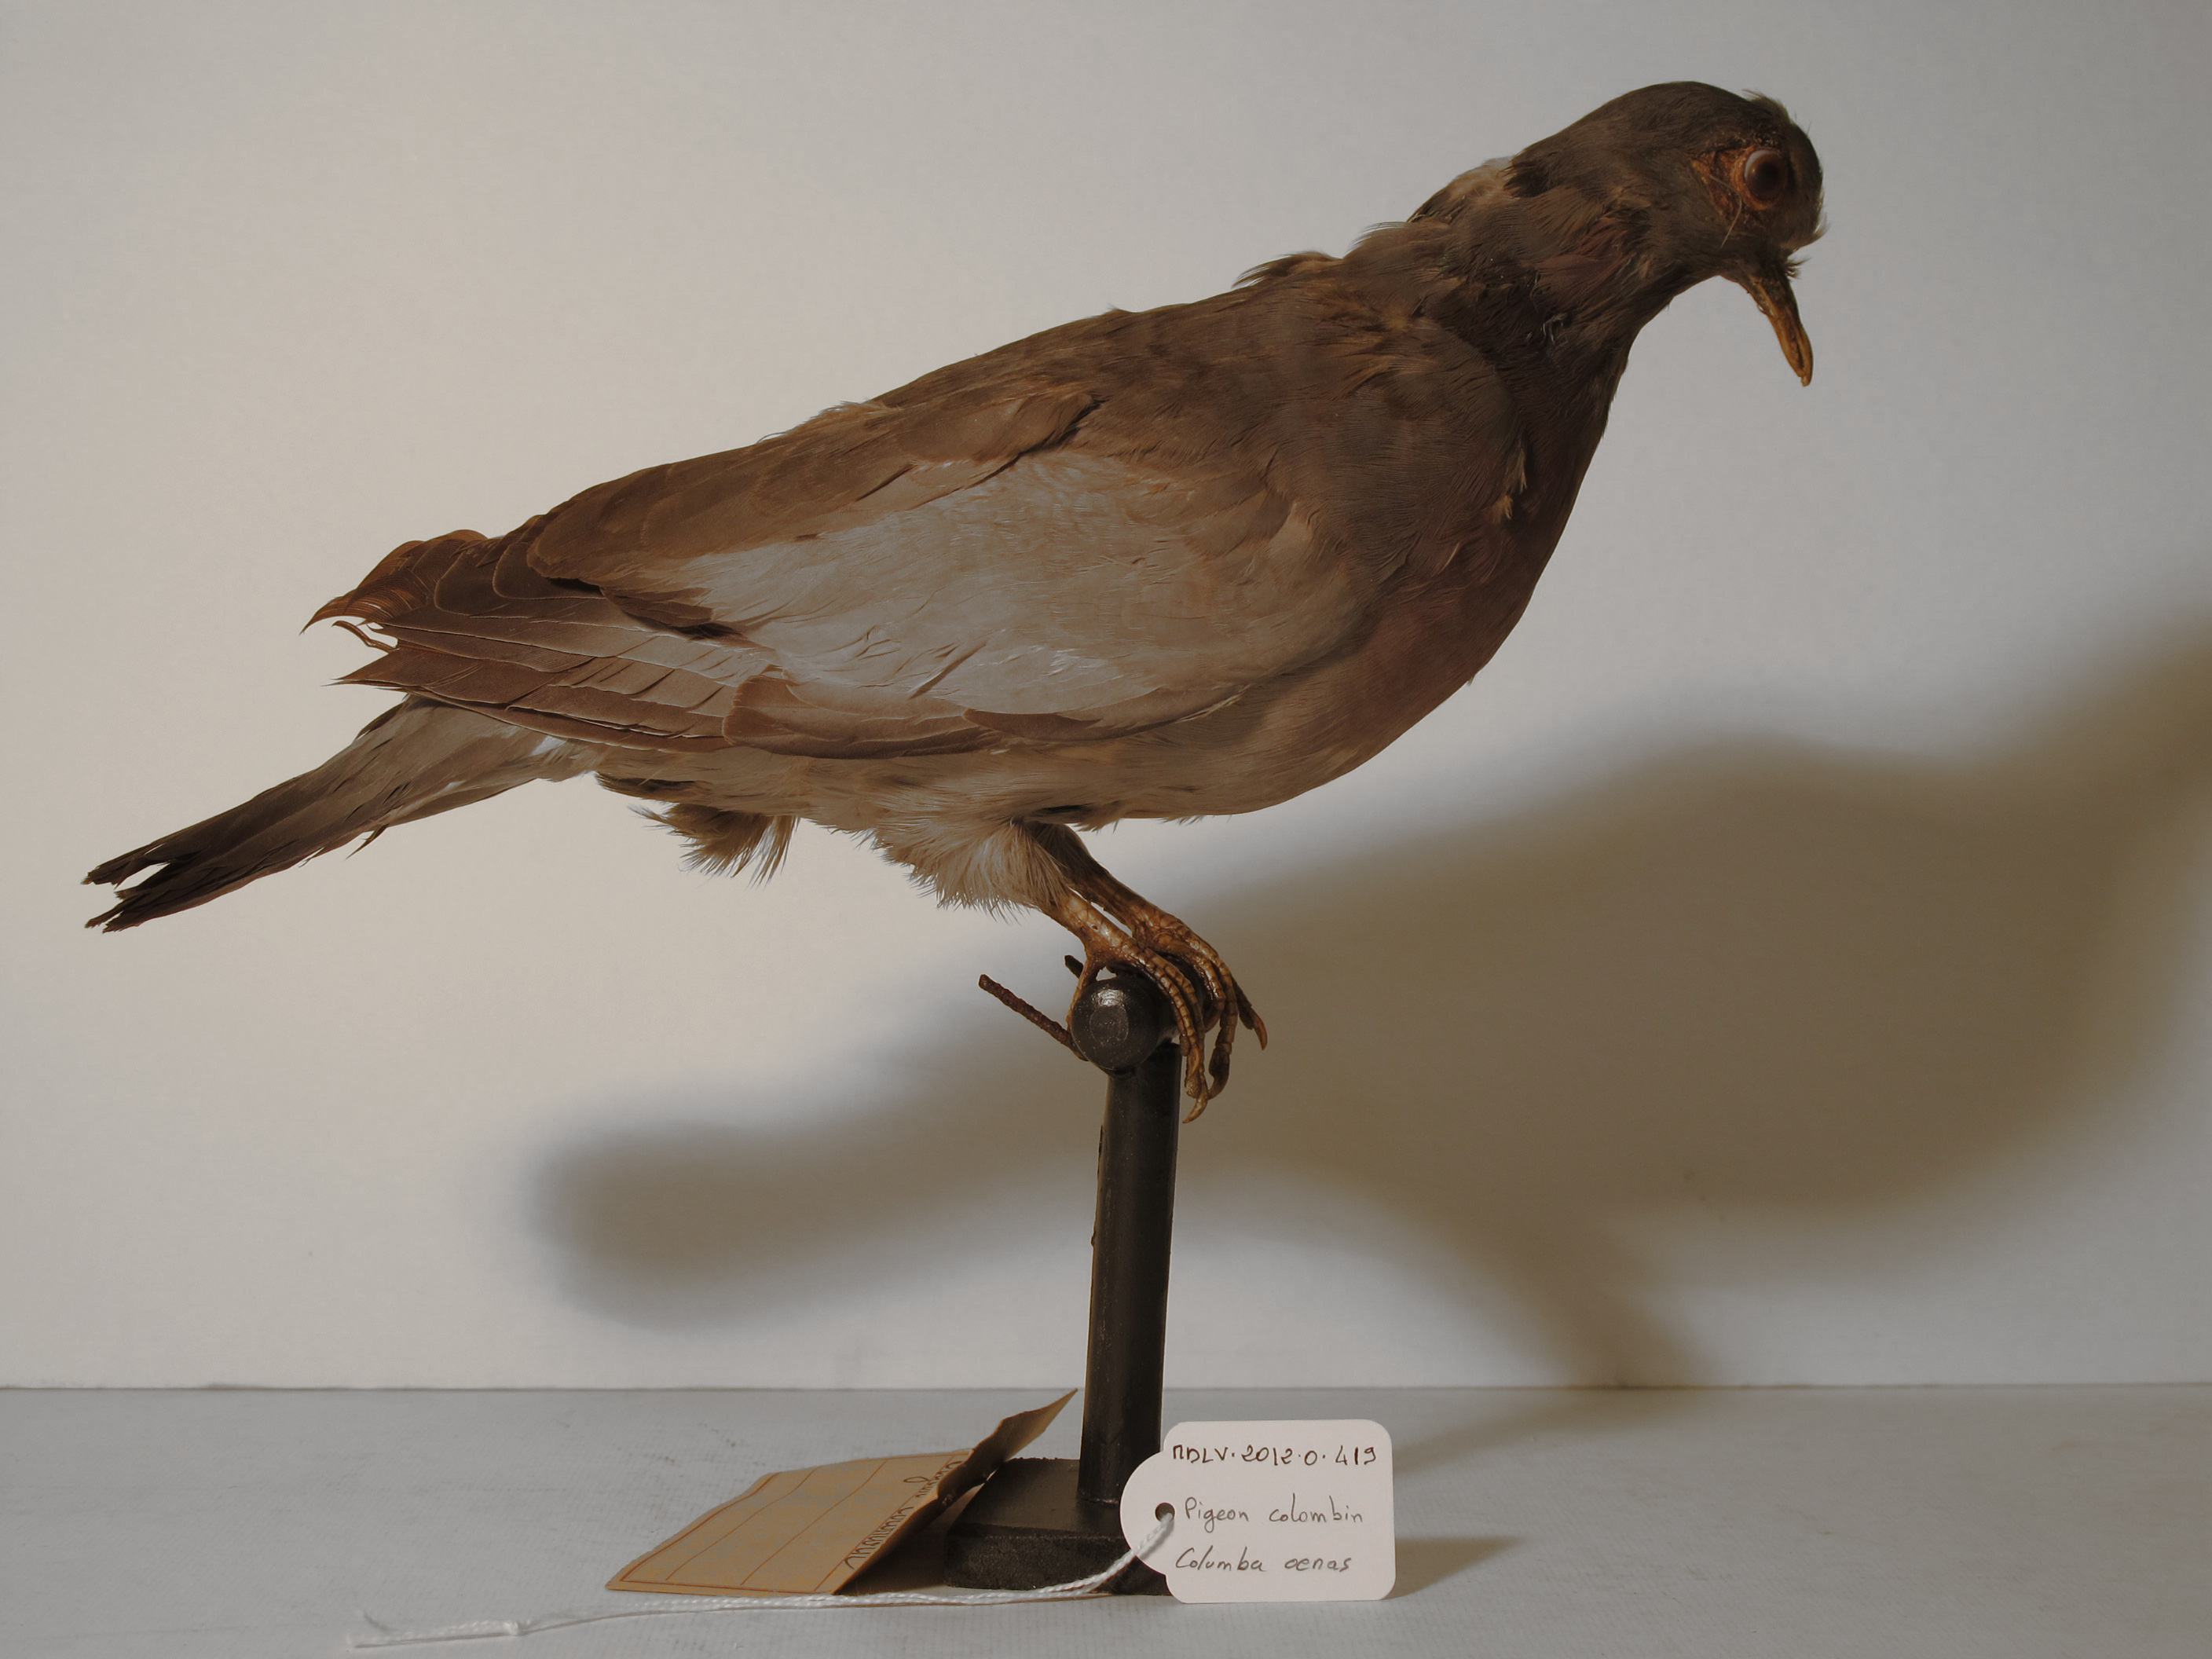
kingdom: Animalia
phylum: Chordata
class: Aves
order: Columbiformes
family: Columbidae
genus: Columba
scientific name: Columba oenas
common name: Stock Dove
